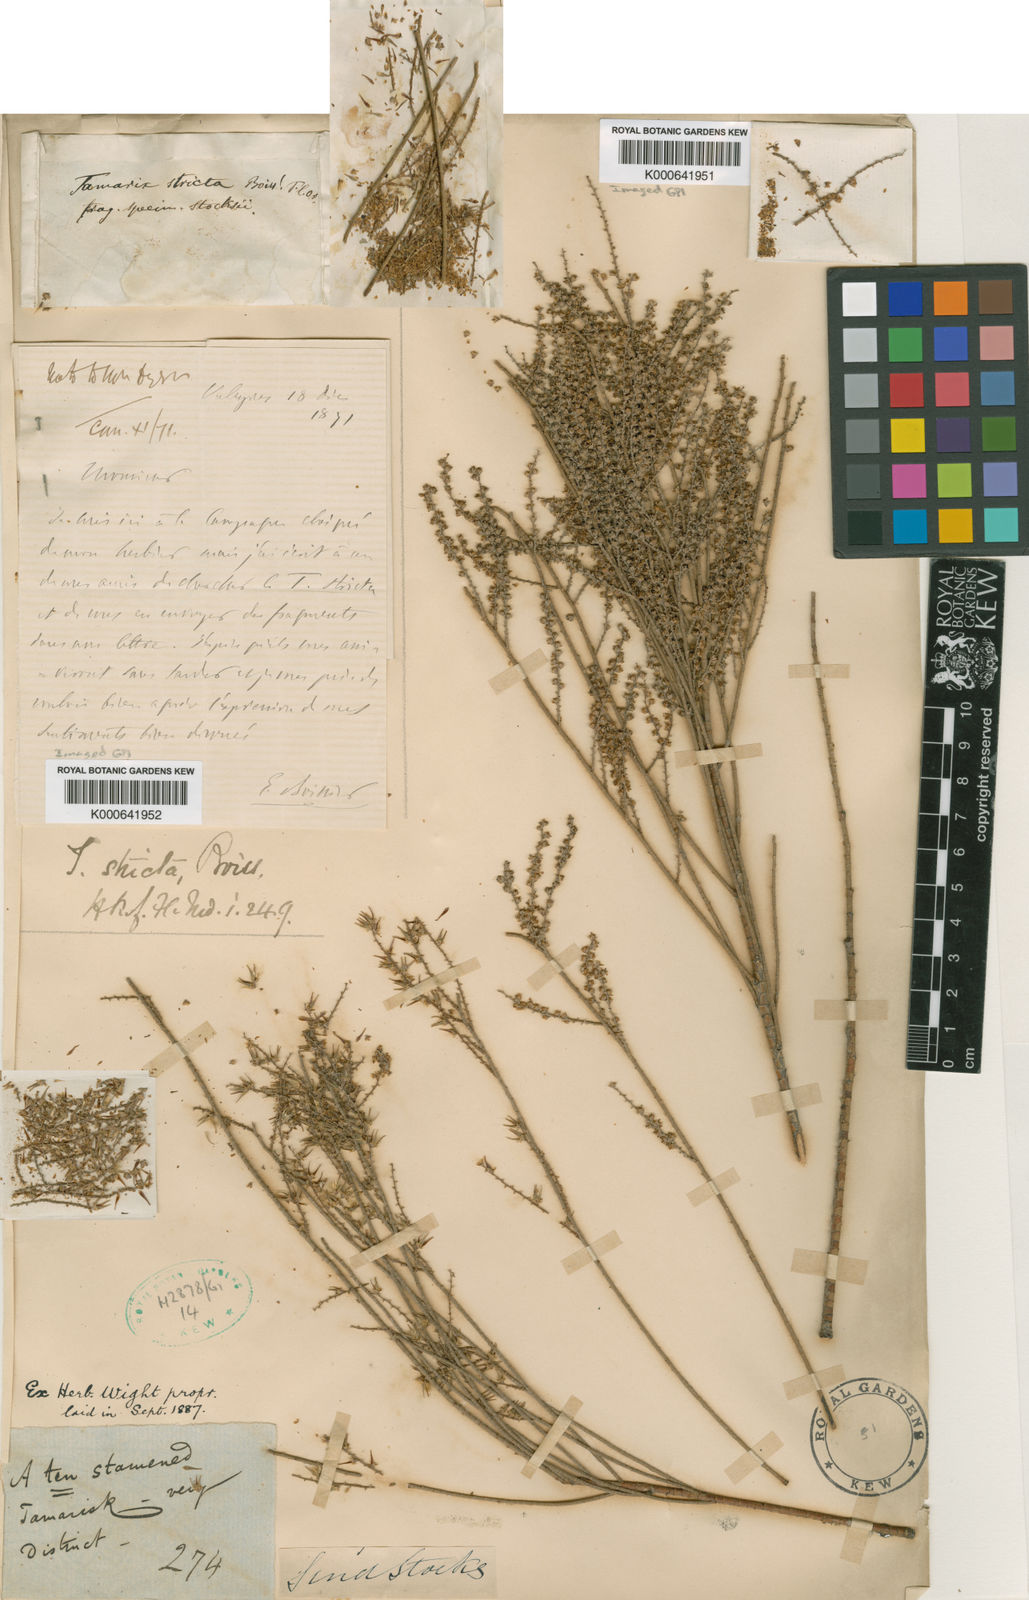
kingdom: Plantae
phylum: Tracheophyta
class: Magnoliopsida
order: Caryophyllales
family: Tamaricaceae
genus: Tamarix
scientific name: Tamarix stricta
